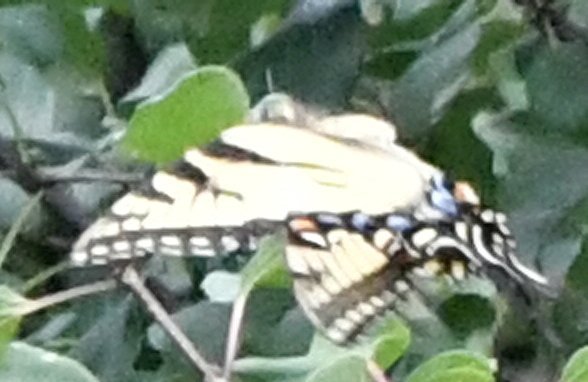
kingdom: Animalia
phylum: Arthropoda
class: Insecta
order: Lepidoptera
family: Papilionidae
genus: Pterourus
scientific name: Pterourus
